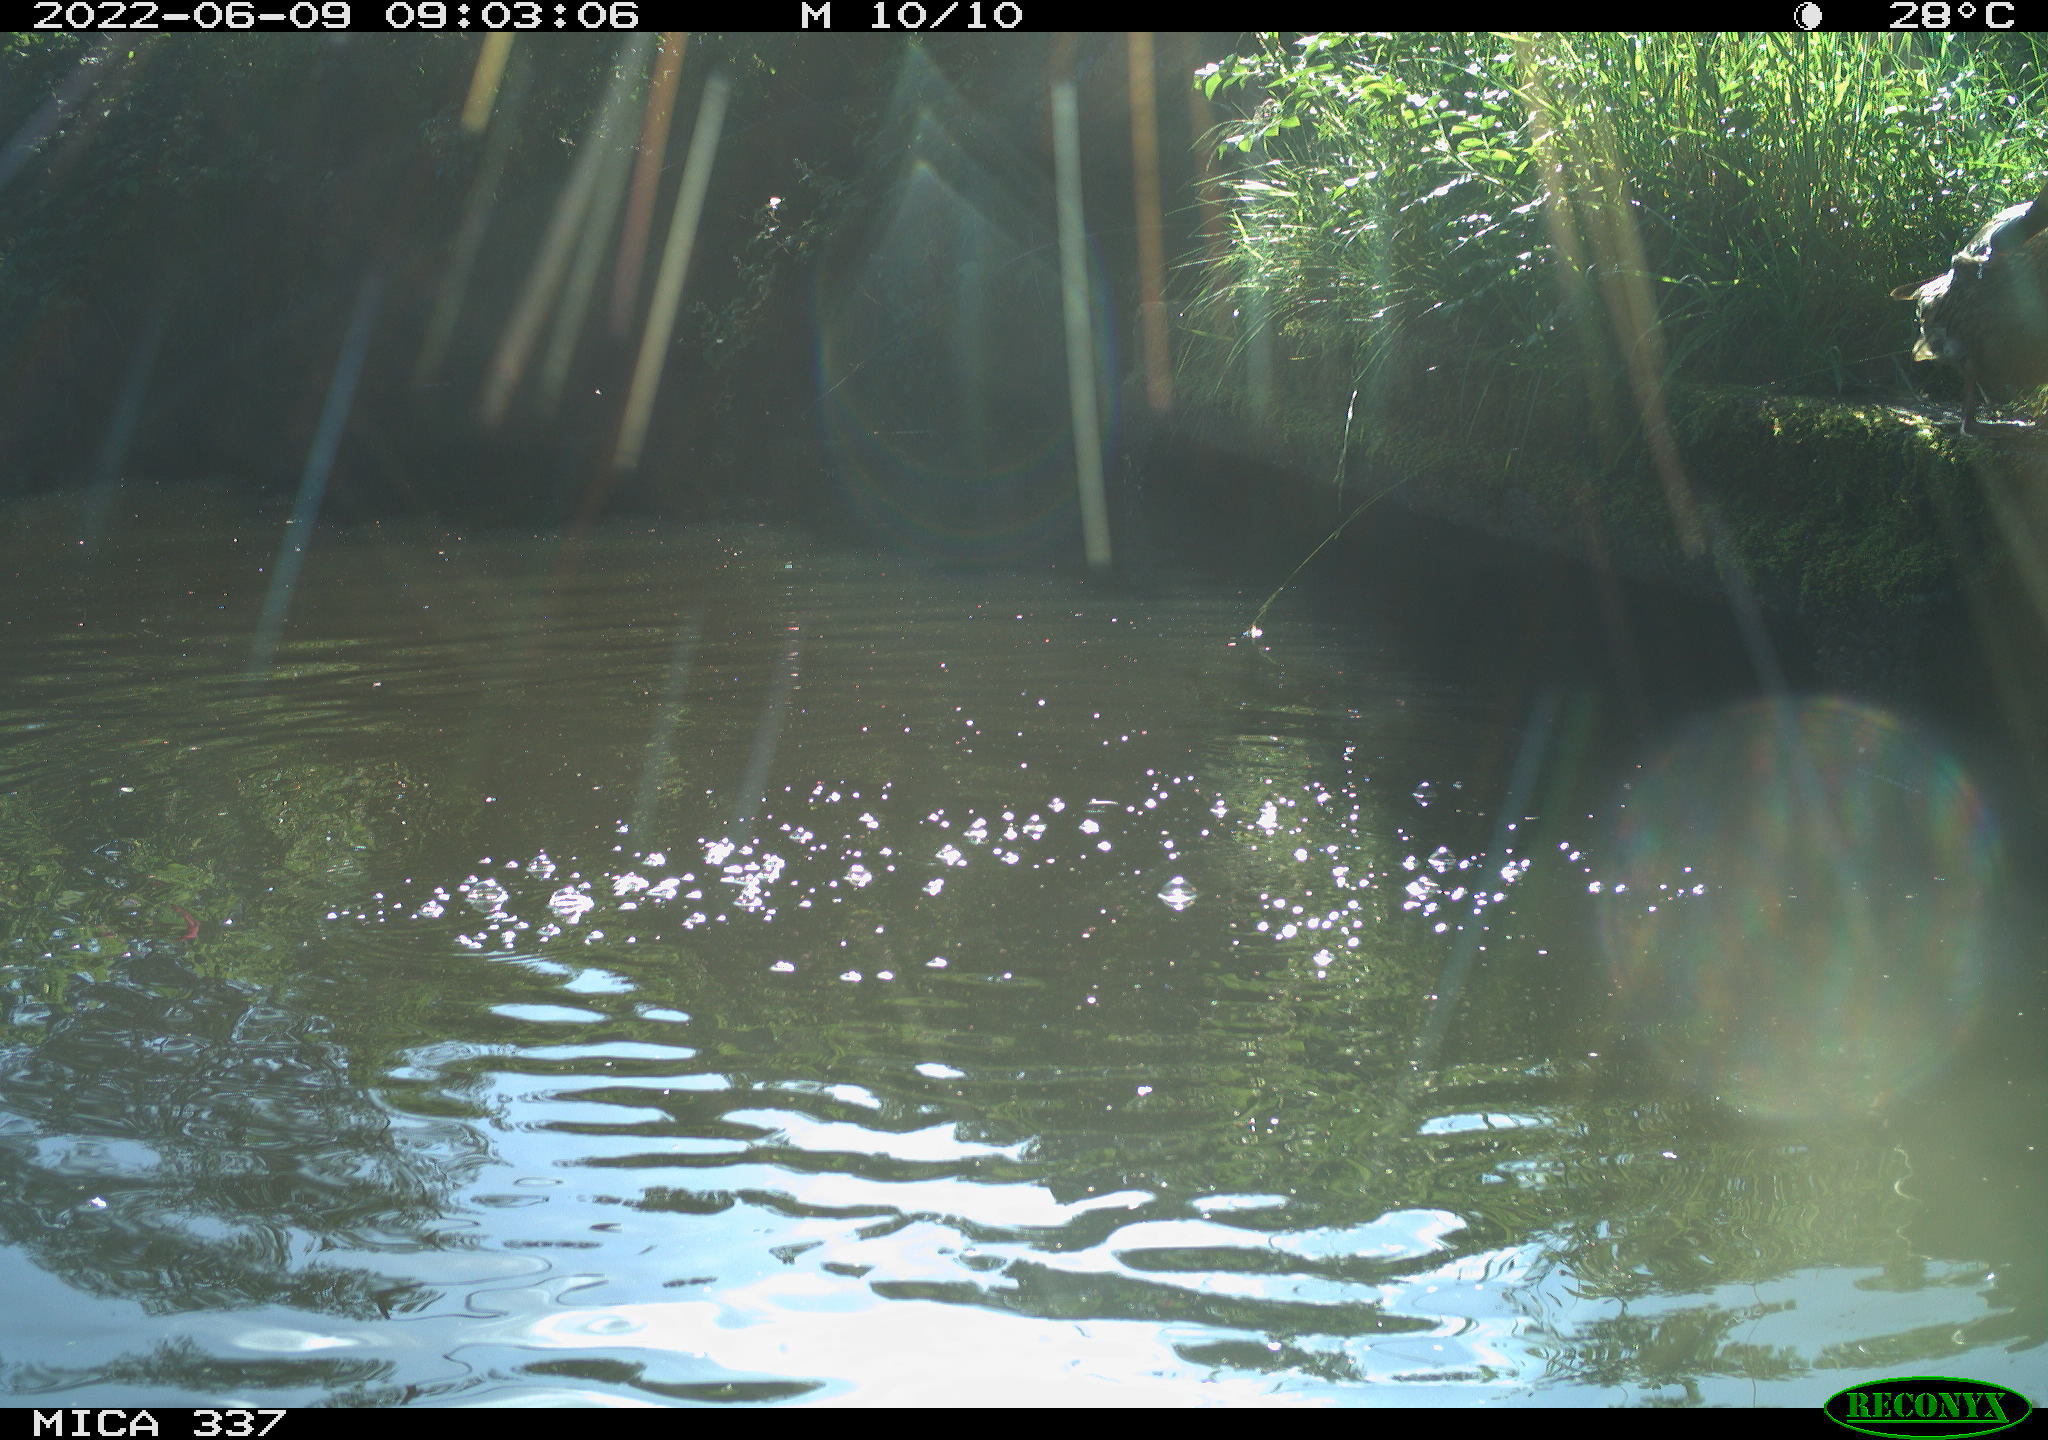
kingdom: Animalia
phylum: Chordata
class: Aves
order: Anseriformes
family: Anatidae
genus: Anas
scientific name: Anas platyrhynchos
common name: Mallard
